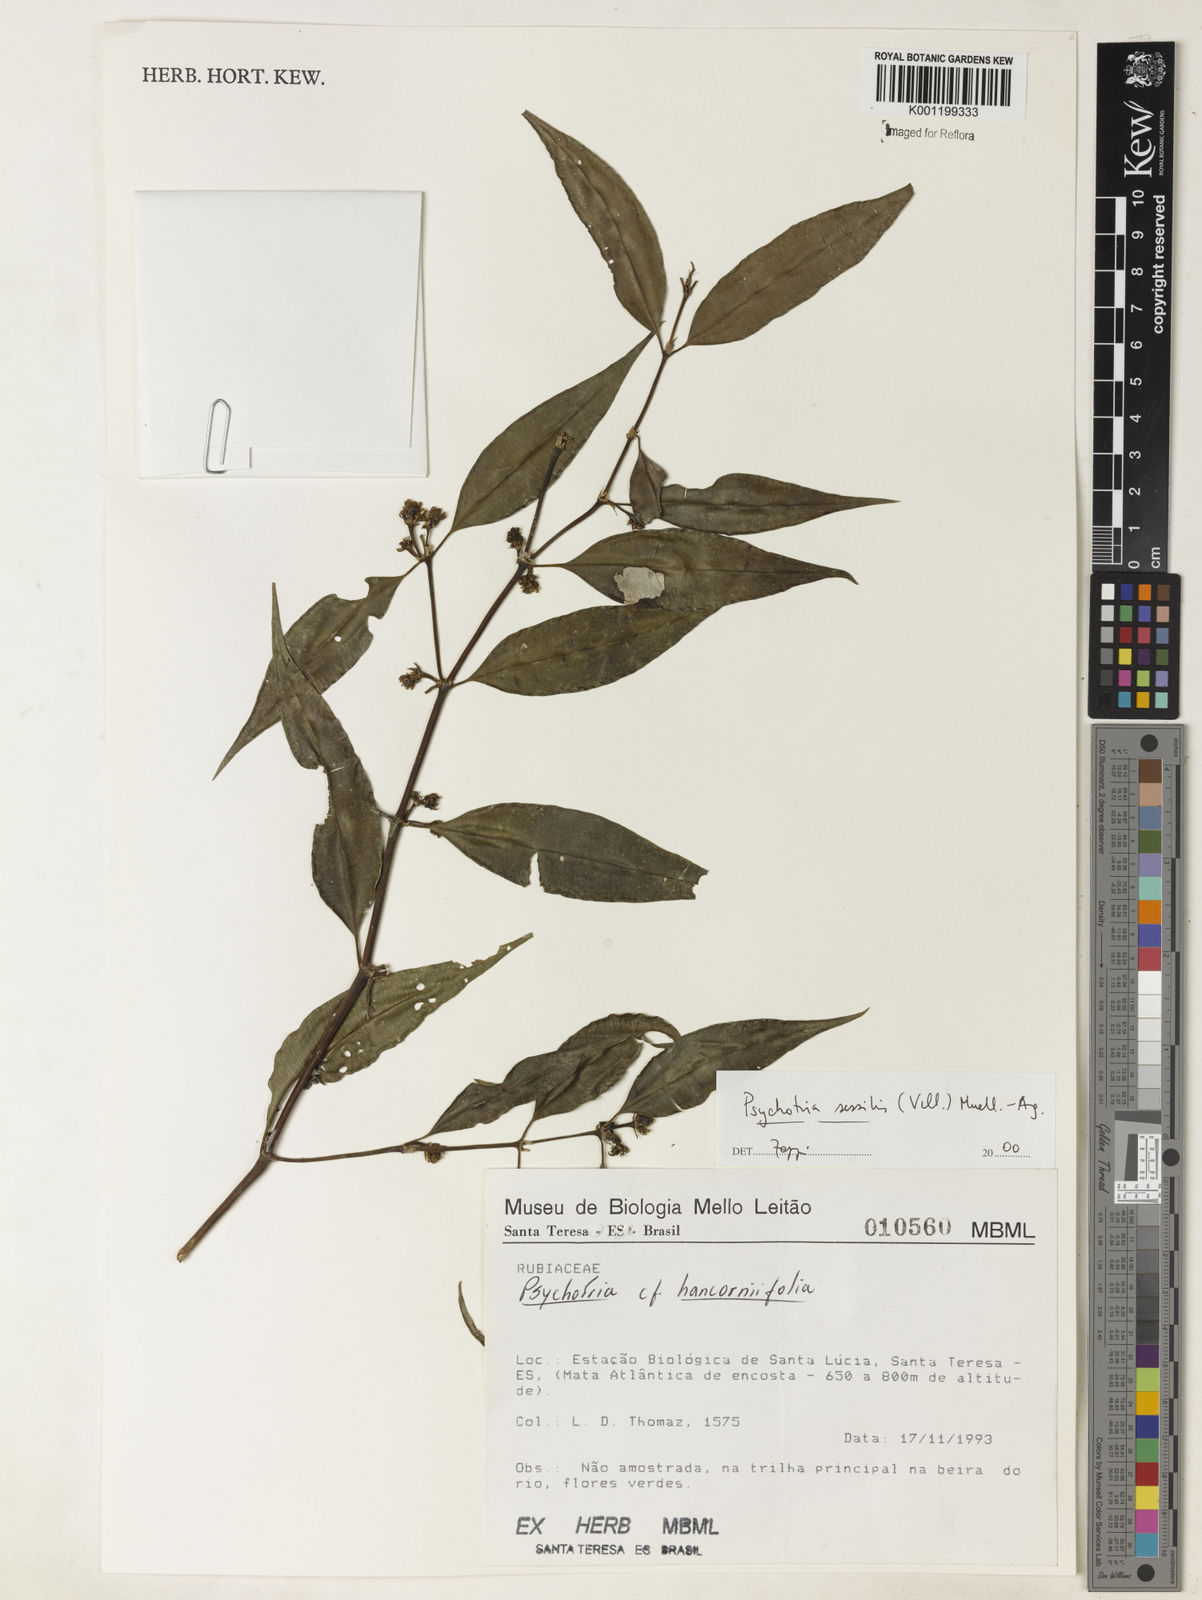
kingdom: Plantae
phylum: Tracheophyta
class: Magnoliopsida
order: Gentianales
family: Rubiaceae
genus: Rudgea
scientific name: Rudgea sessilis
